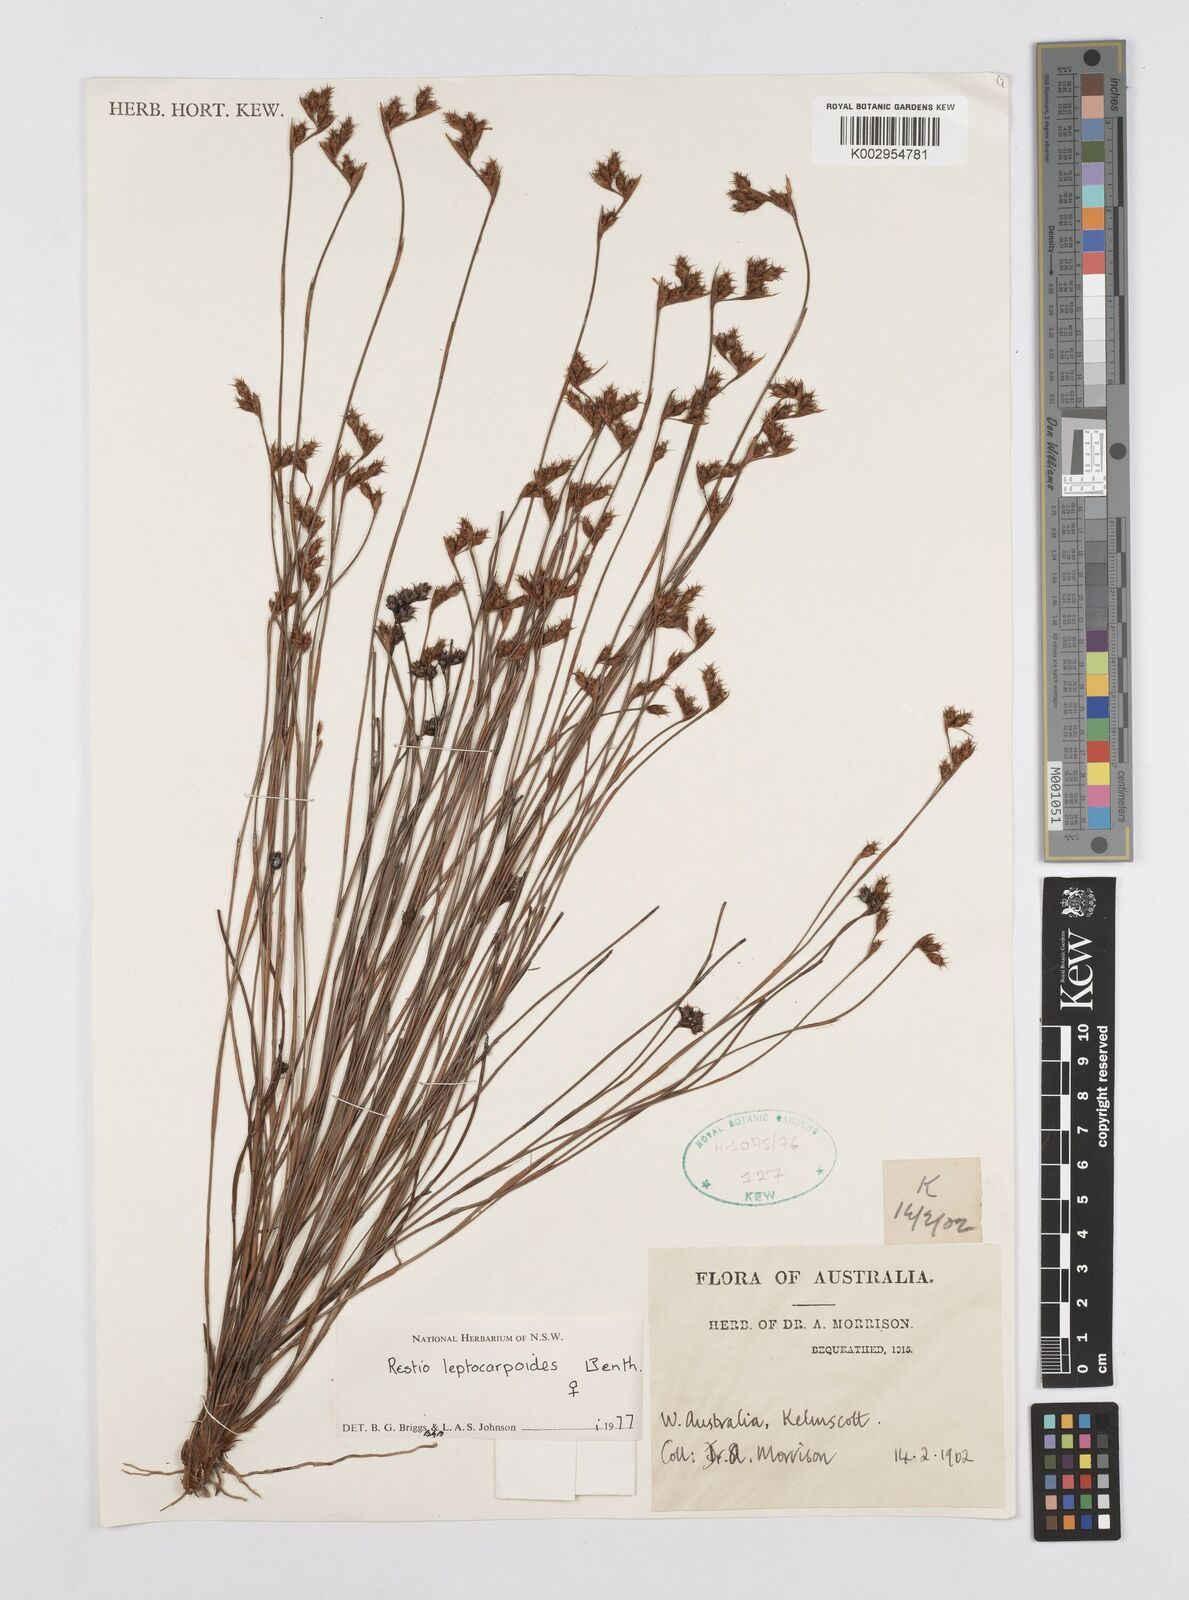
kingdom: Plantae
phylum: Tracheophyta
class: Liliopsida
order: Poales
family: Restionaceae
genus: Cytogonidium
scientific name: Cytogonidium leptocarpoides
